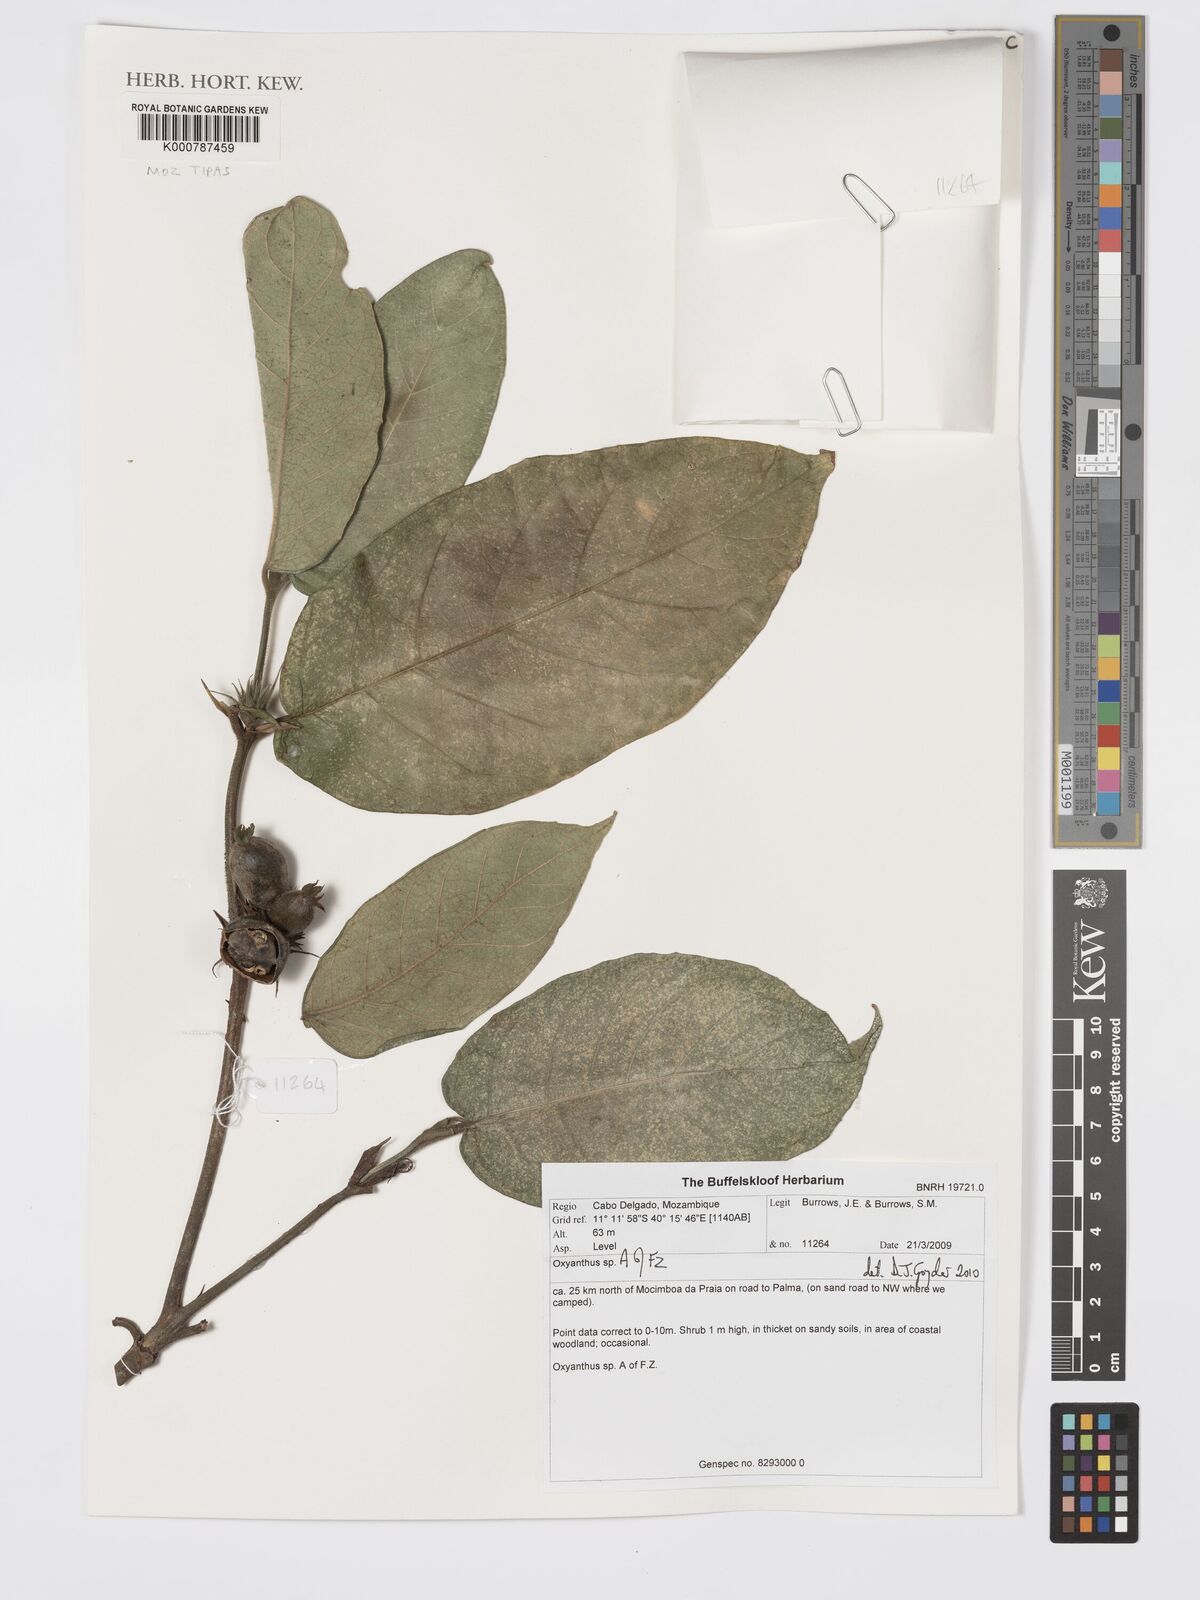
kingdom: Plantae
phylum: Tracheophyta
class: Magnoliopsida
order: Gentianales
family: Rubiaceae
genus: Oxyanthus
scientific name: Oxyanthus strigosus
